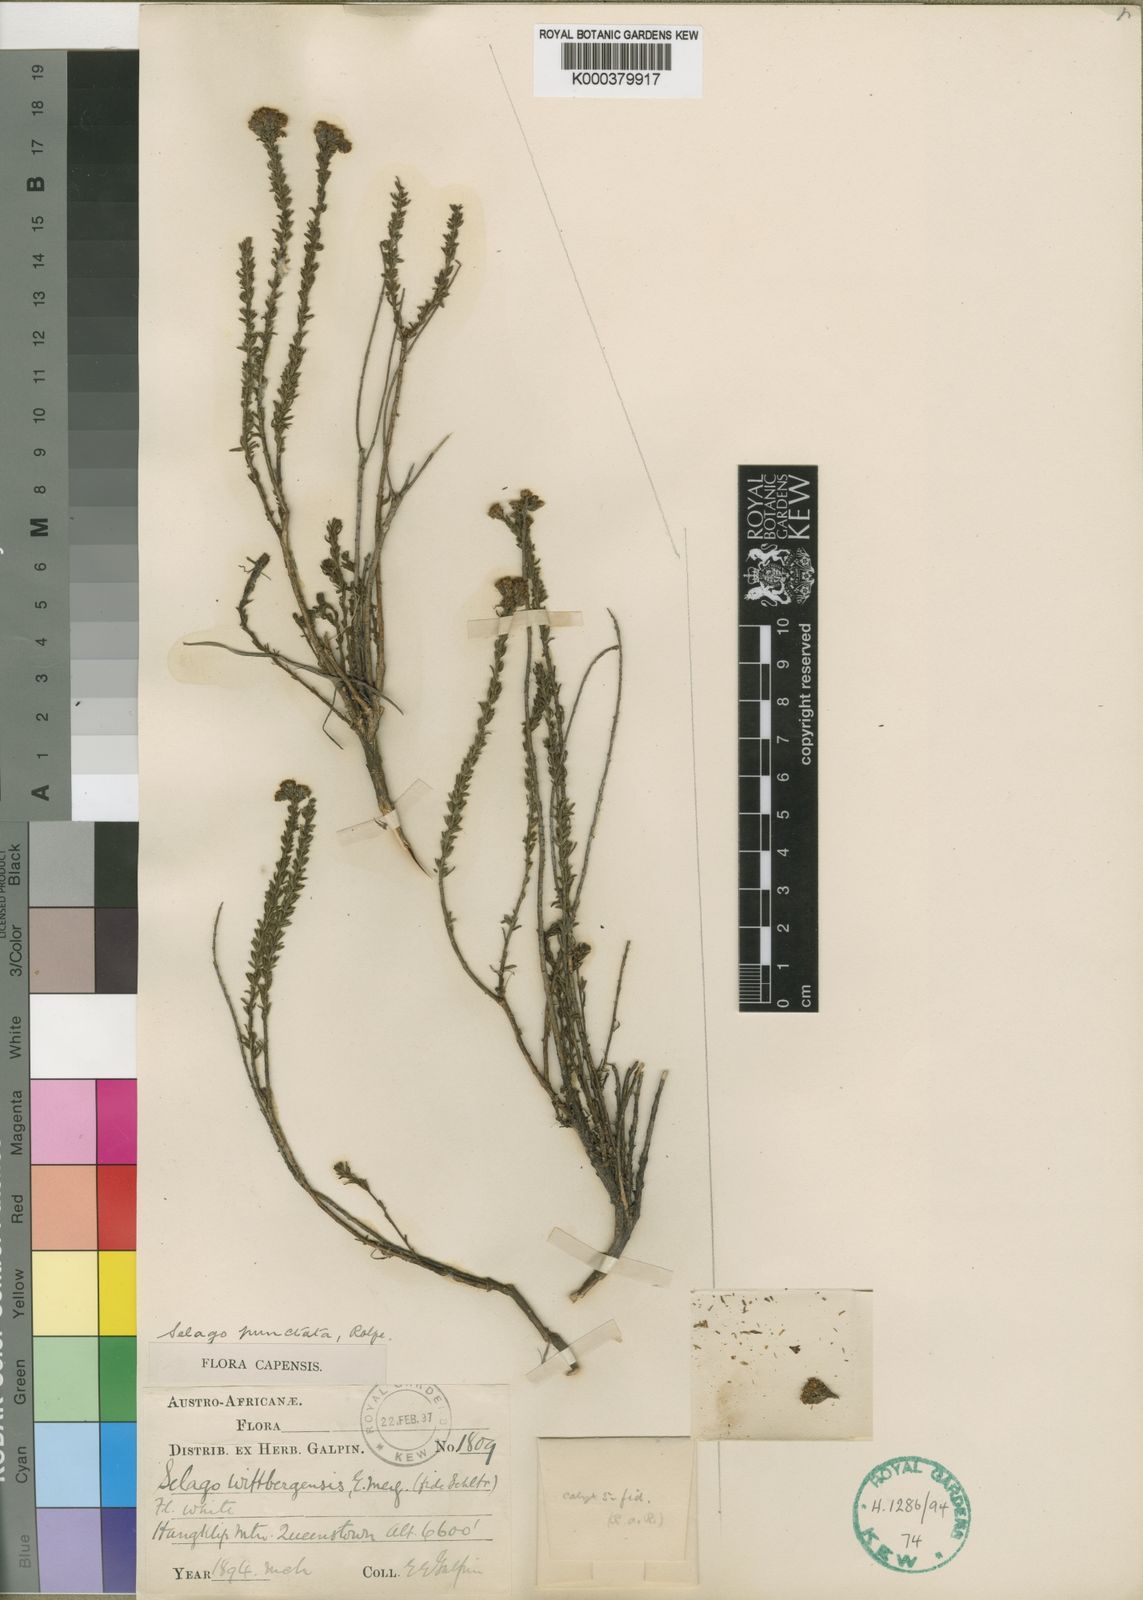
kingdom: Plantae
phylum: Tracheophyta
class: Magnoliopsida
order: Lamiales
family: Scrophulariaceae
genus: Selago
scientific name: Selago punctata
